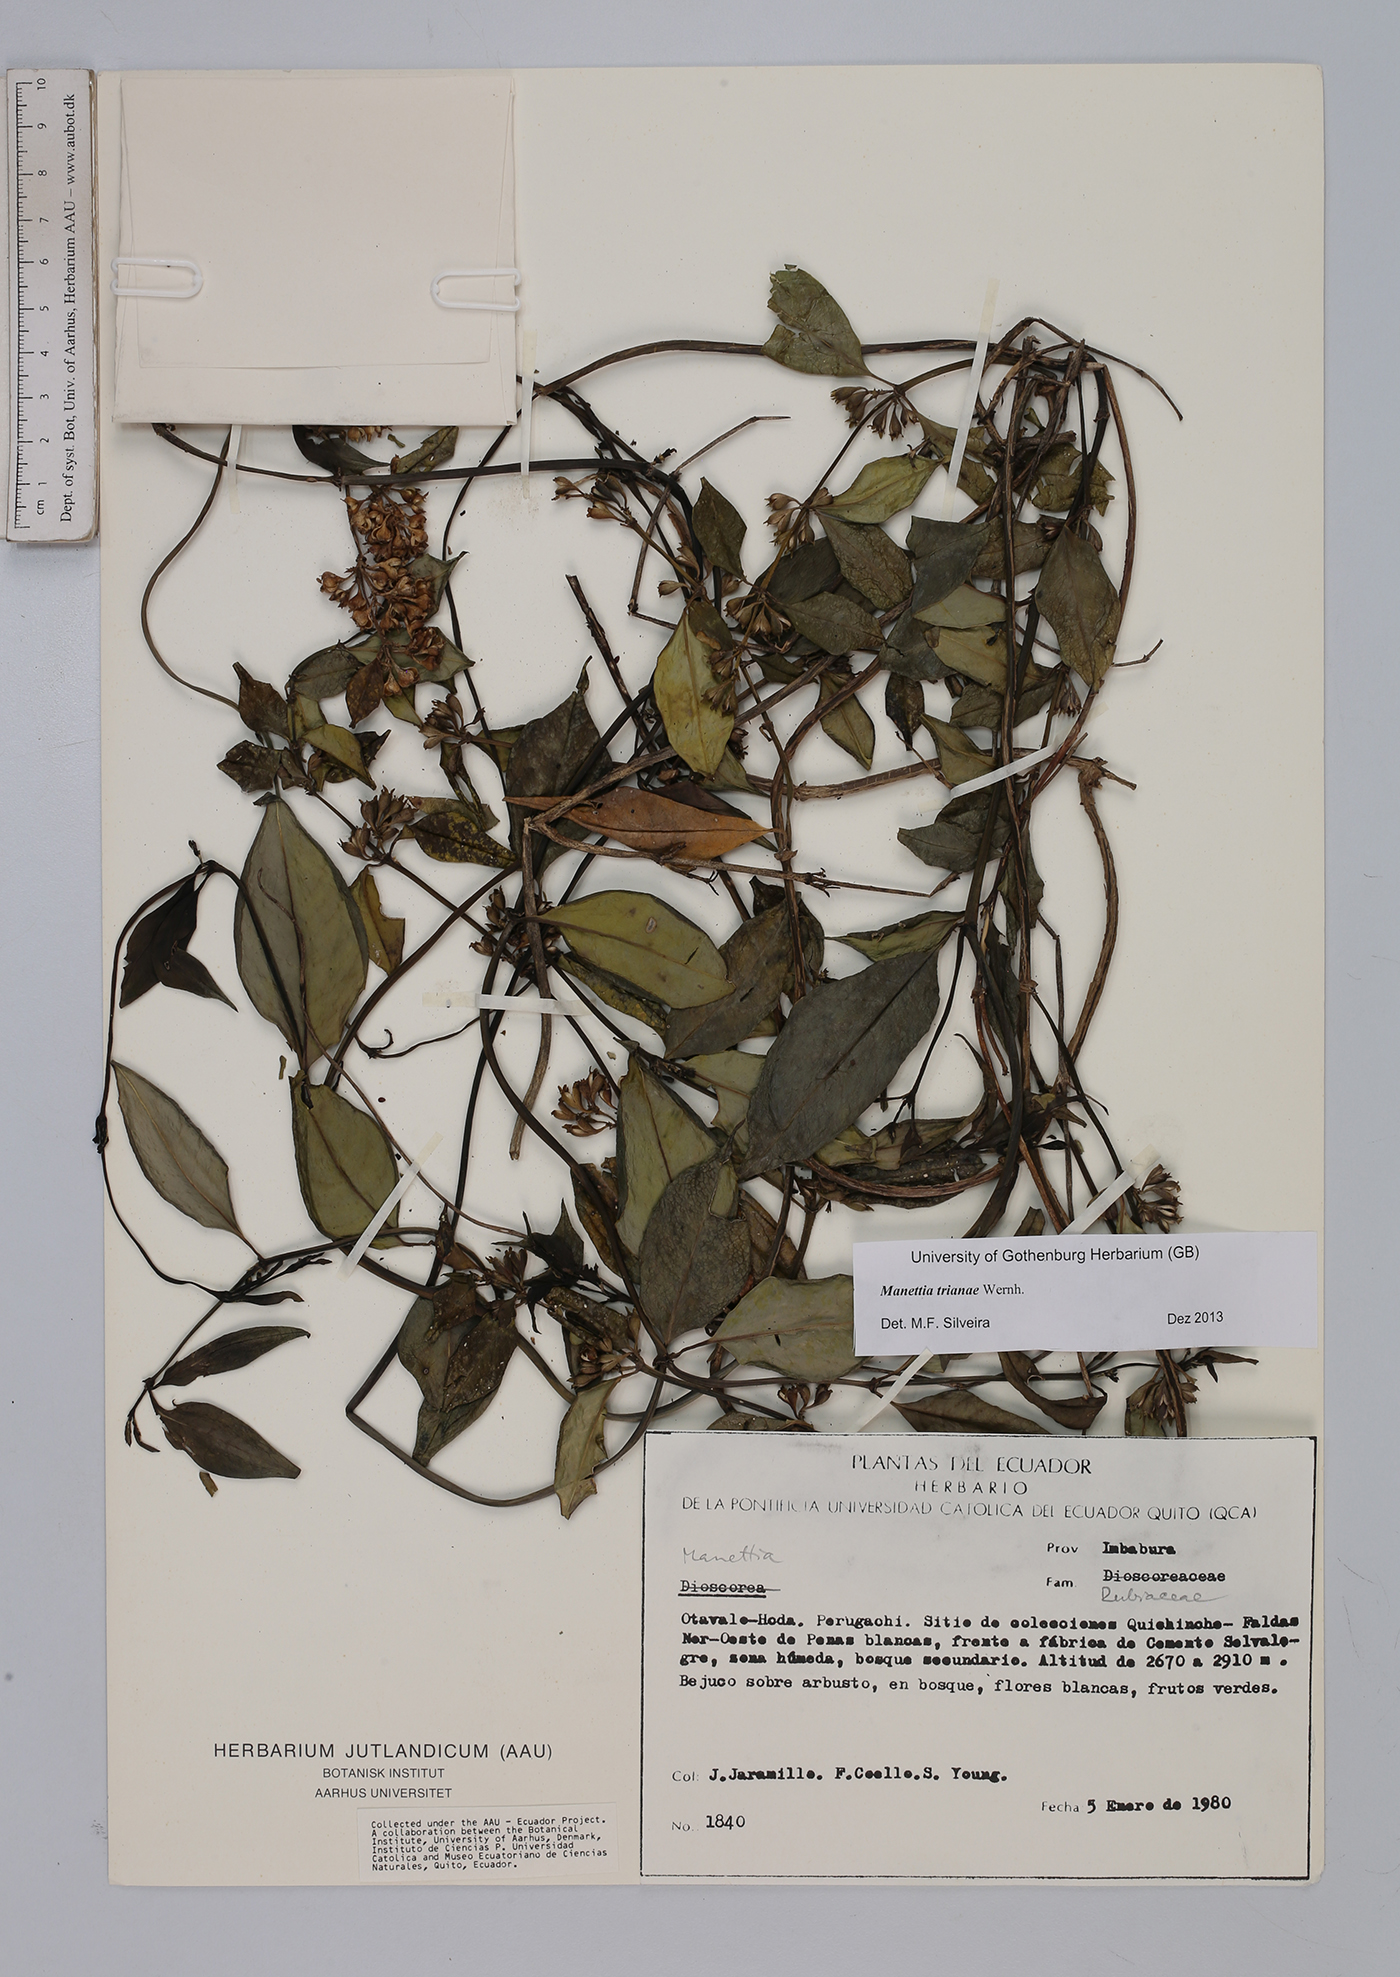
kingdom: Plantae
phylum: Tracheophyta
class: Magnoliopsida
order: Gentianales
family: Rubiaceae
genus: Manettia
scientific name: Manettia trianae
